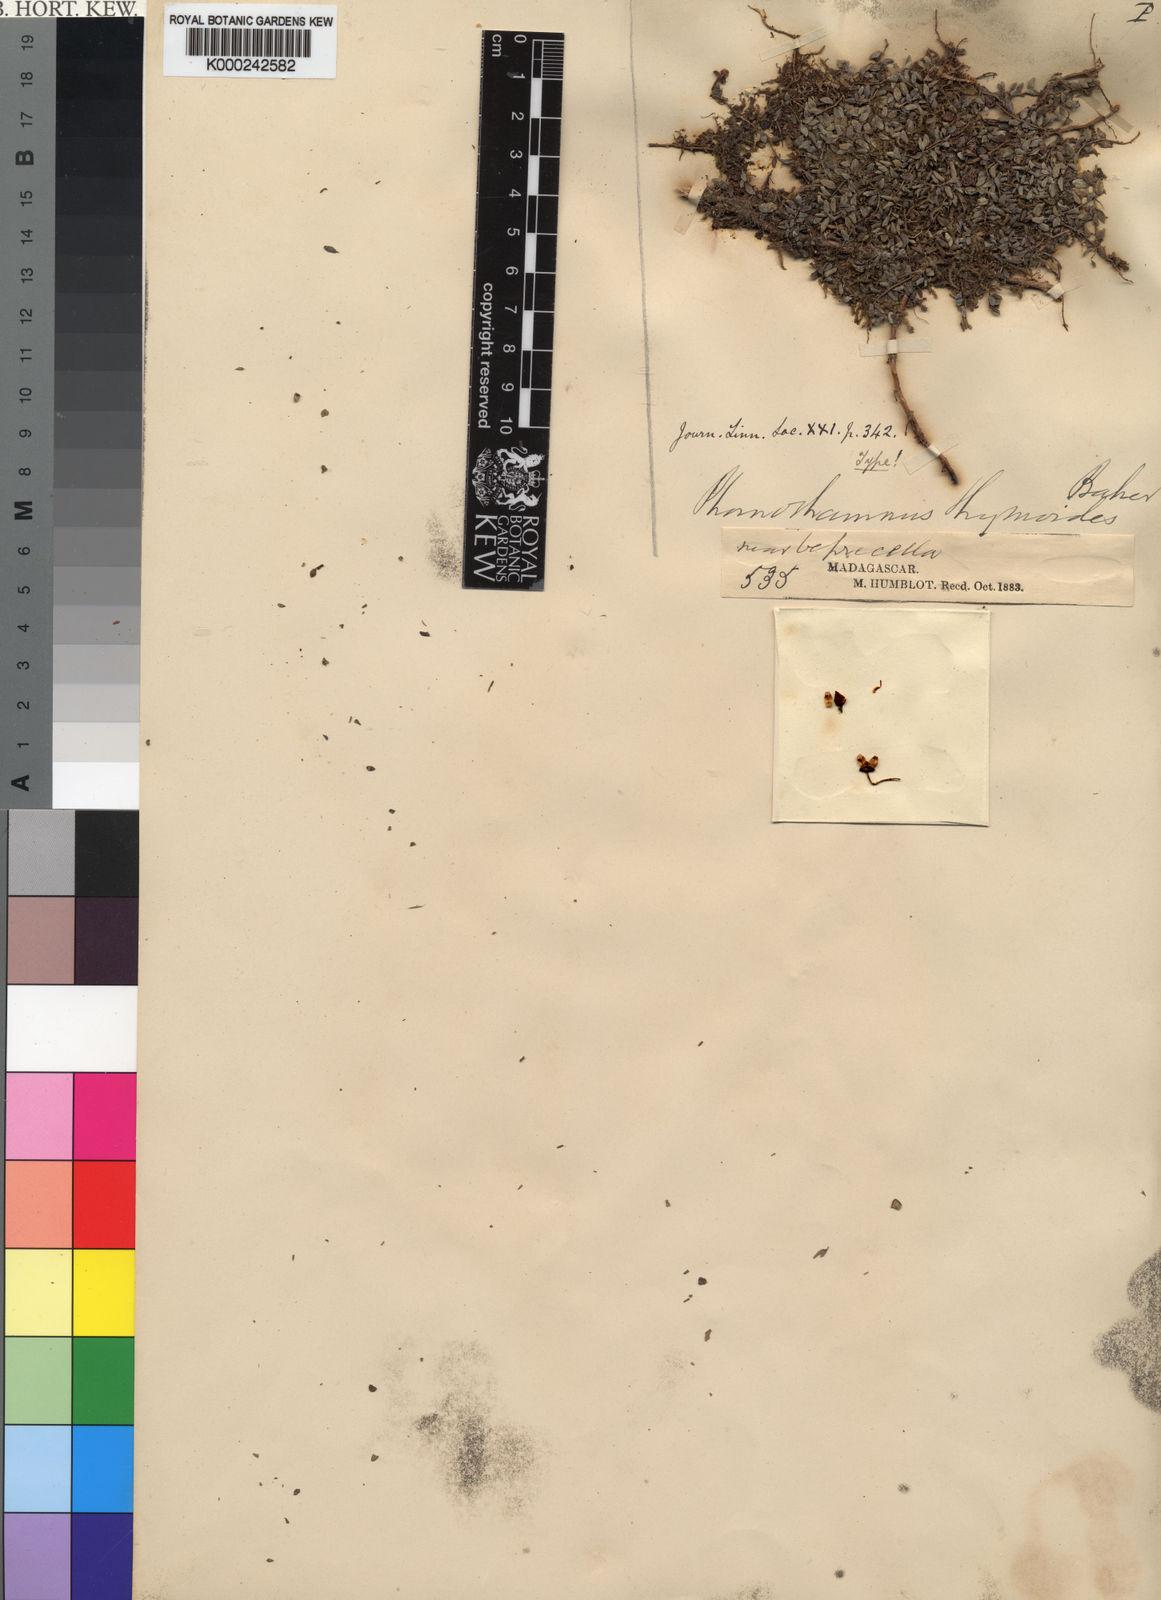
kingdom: Plantae
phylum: Tracheophyta
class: Magnoliopsida
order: Myrtales
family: Melastomataceae
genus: Gravesia
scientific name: Gravesia thymoides
